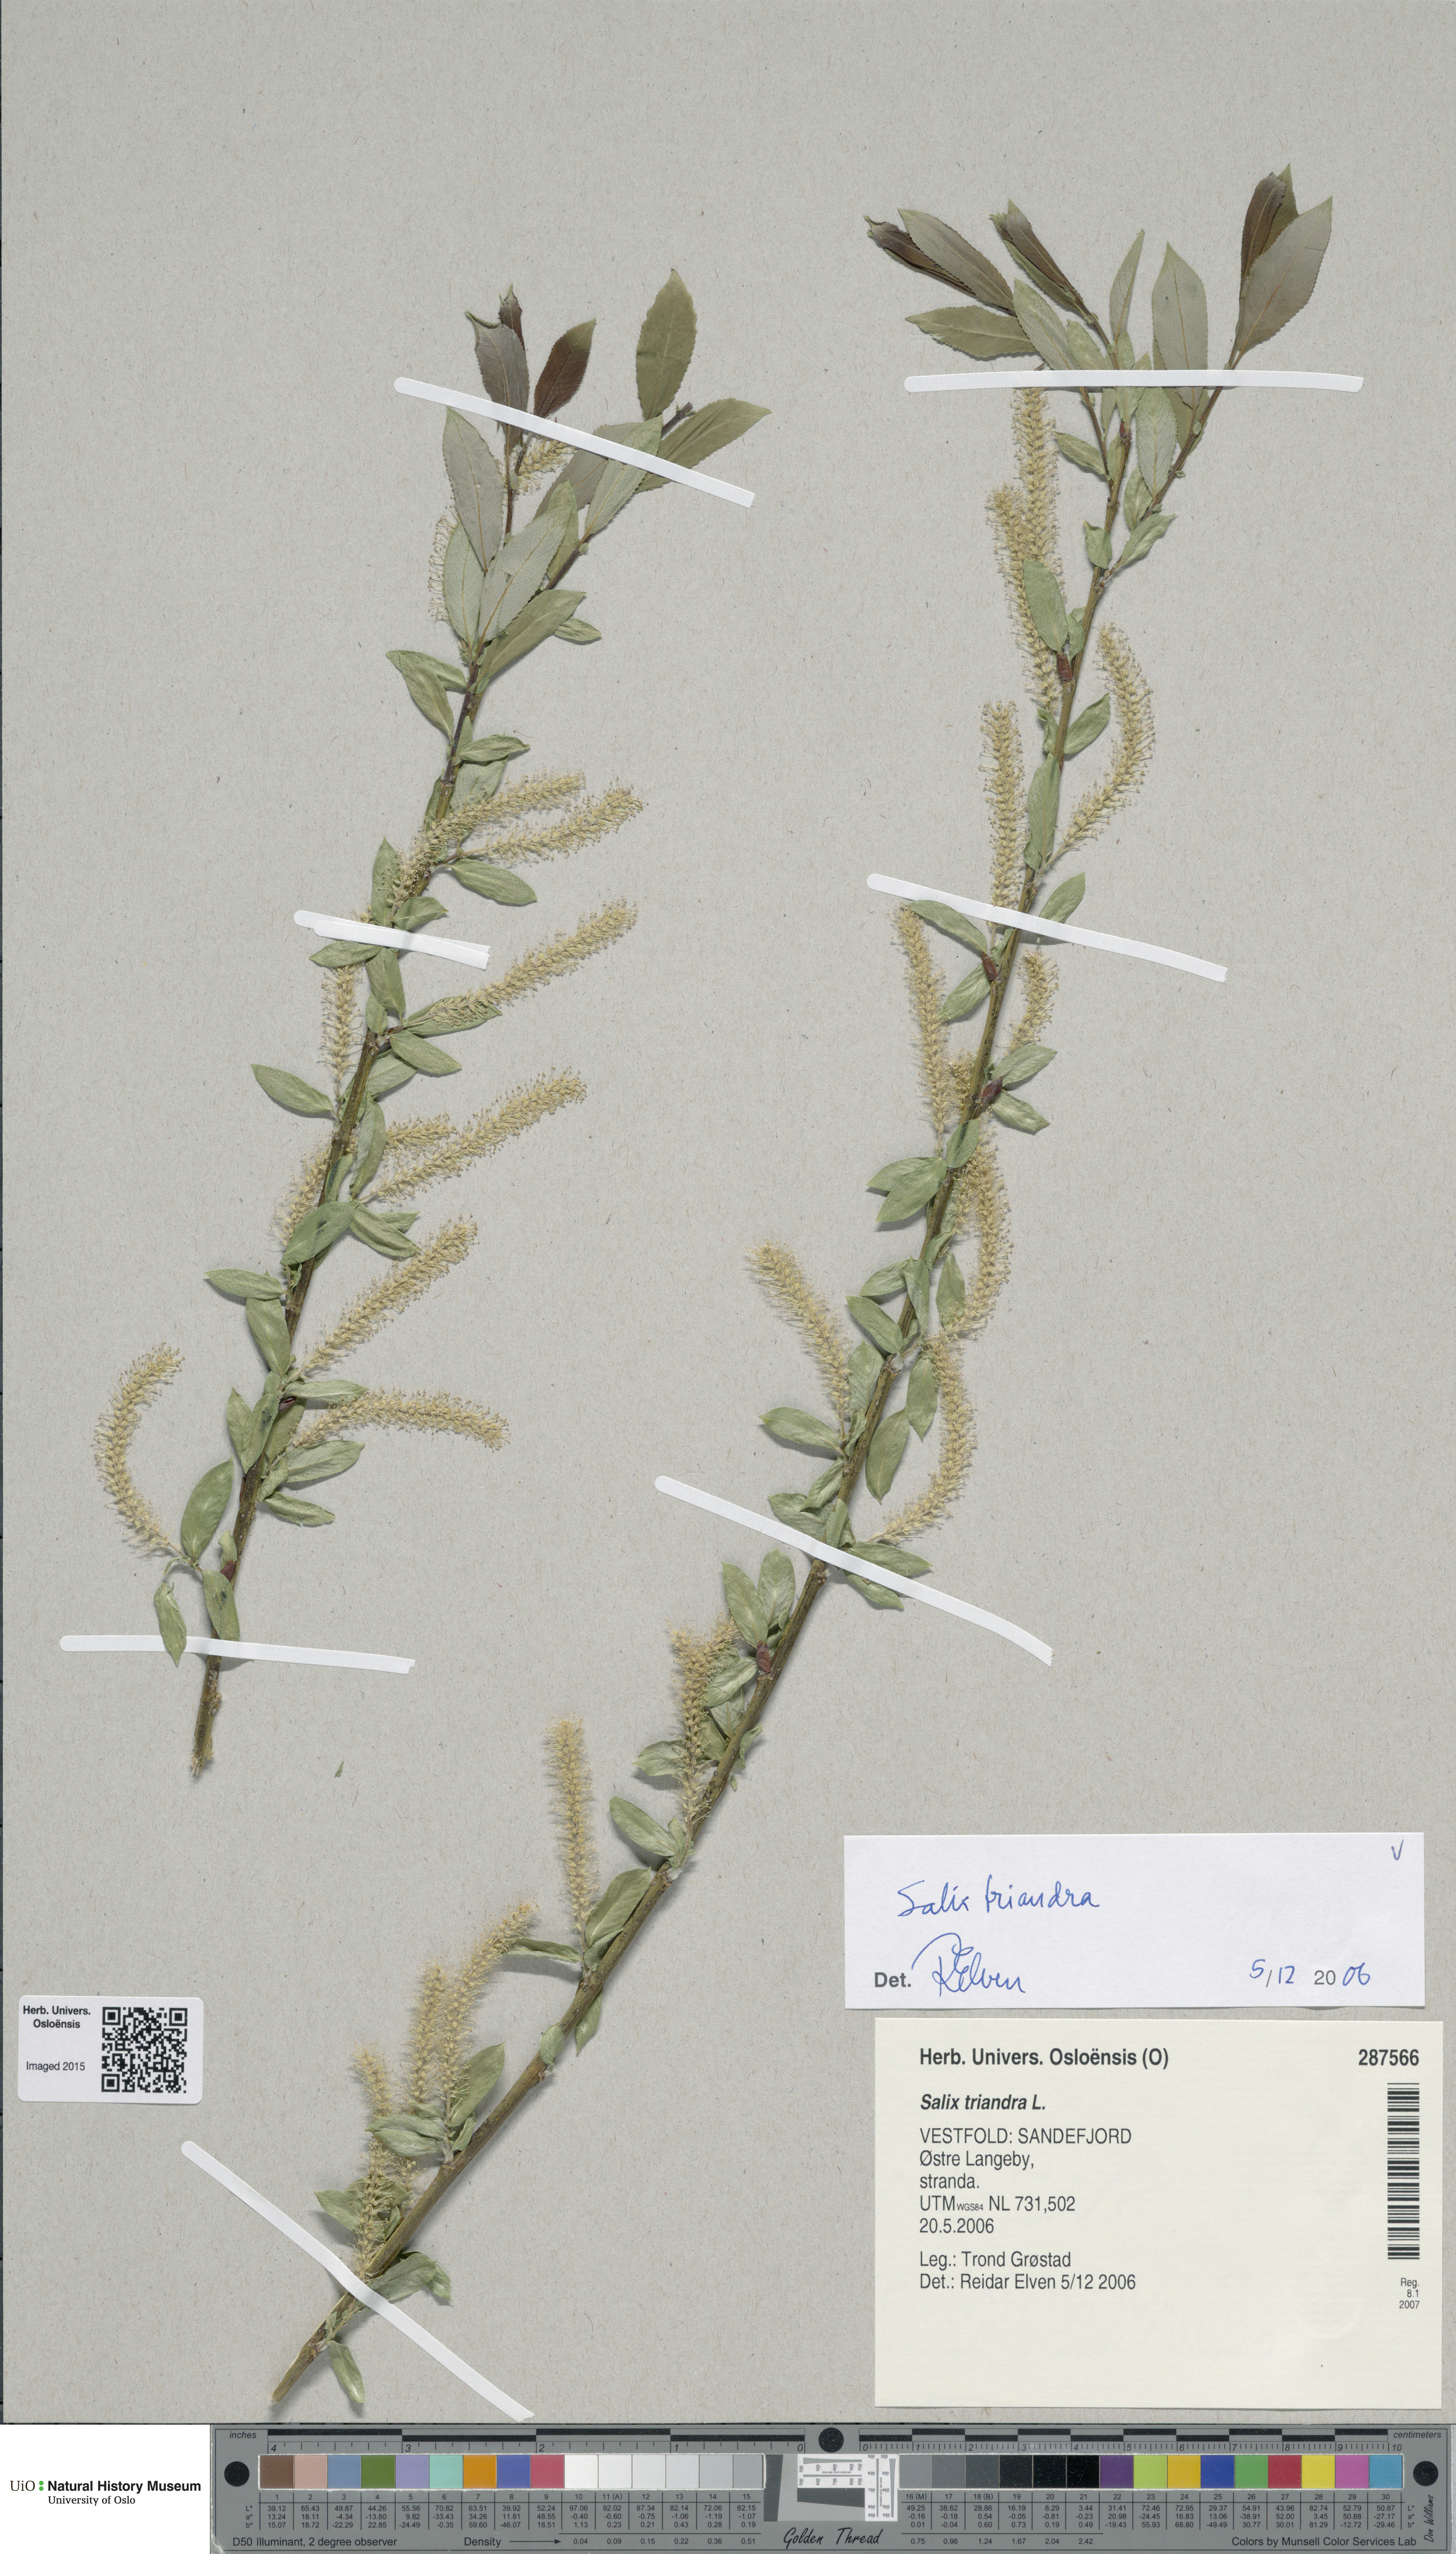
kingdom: Plantae
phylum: Tracheophyta
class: Magnoliopsida
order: Malpighiales
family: Salicaceae
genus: Salix
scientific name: Salix triandra
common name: Almond willow
